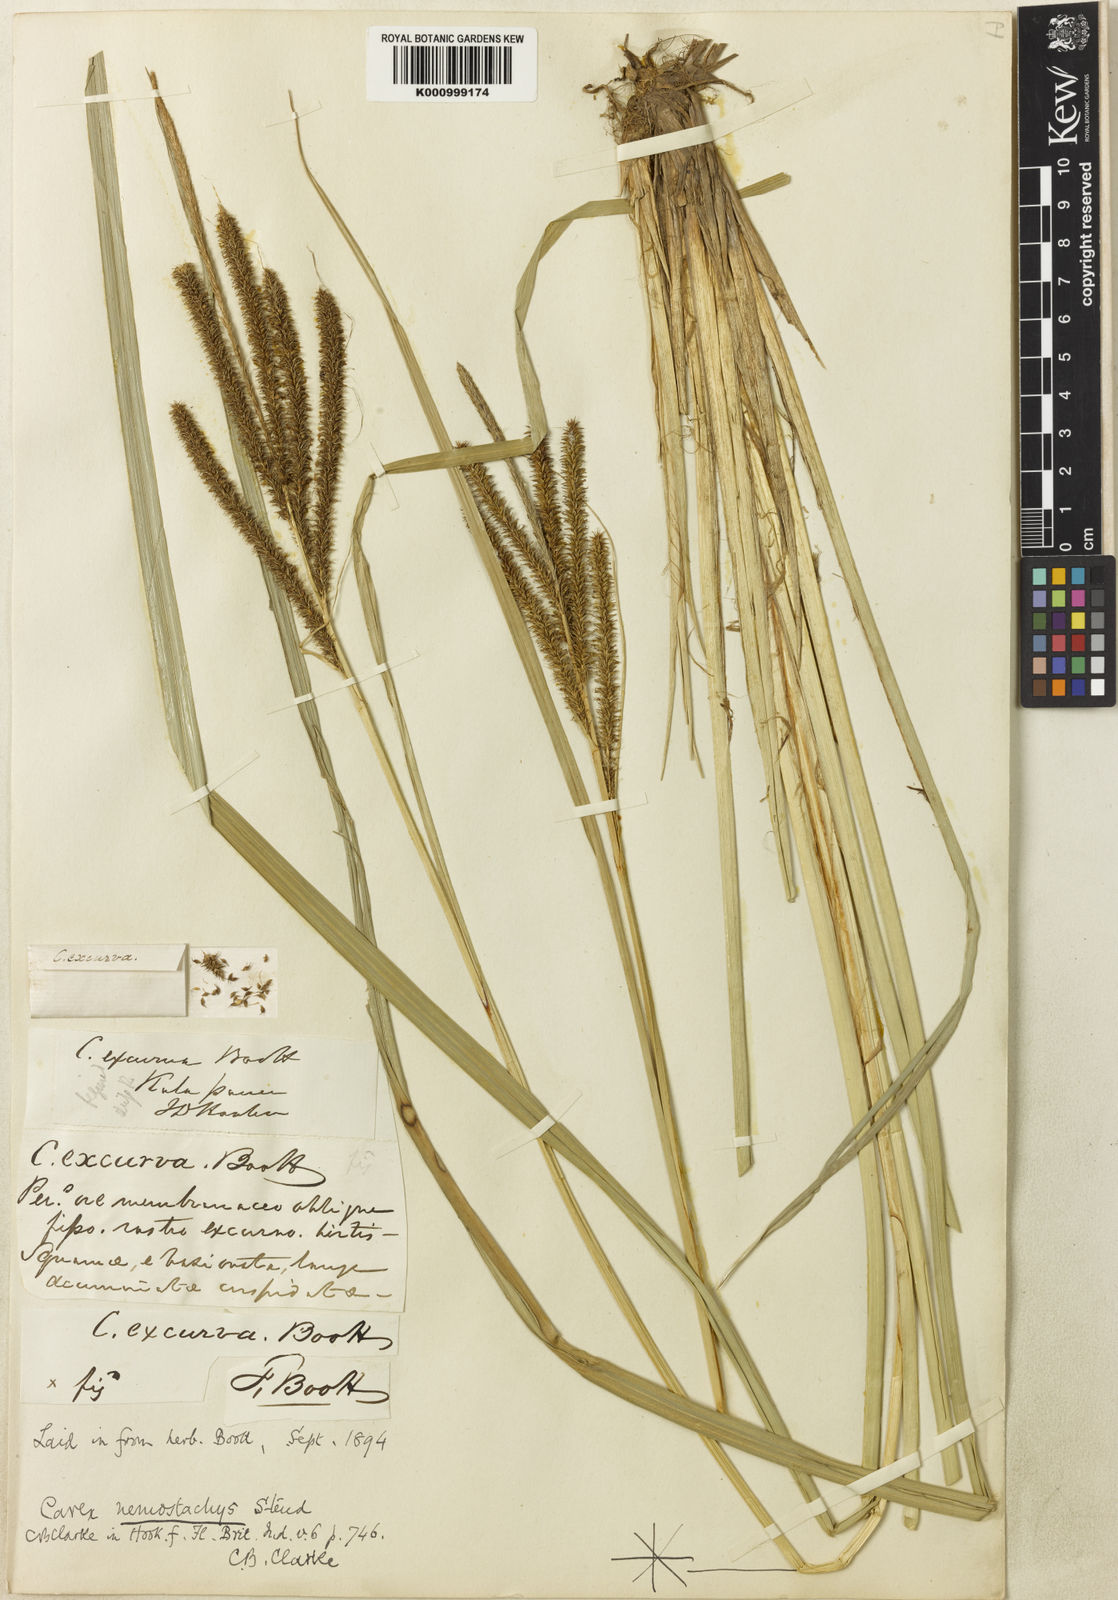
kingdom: Plantae
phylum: Tracheophyta
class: Liliopsida
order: Poales
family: Cyperaceae
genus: Carex
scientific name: Carex nemostachys
